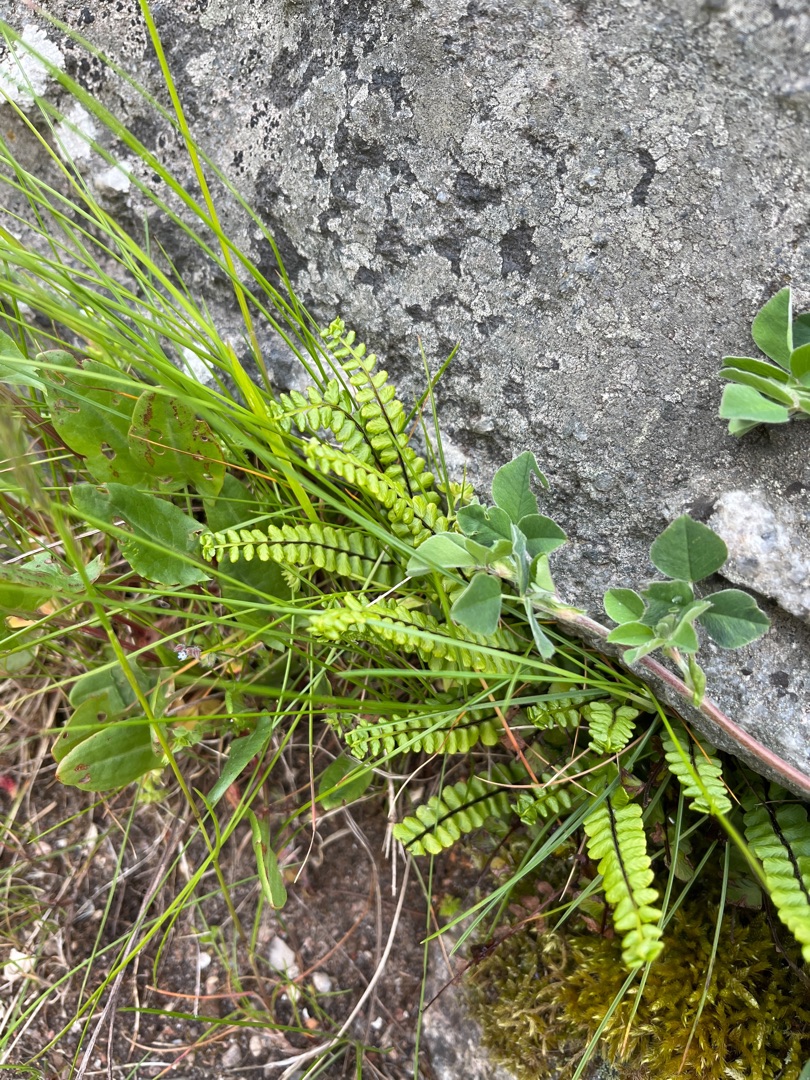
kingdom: Plantae
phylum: Tracheophyta
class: Polypodiopsida
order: Polypodiales
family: Aspleniaceae
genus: Asplenium
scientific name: Asplenium trichomanes
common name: Rundfinnet radeløv
